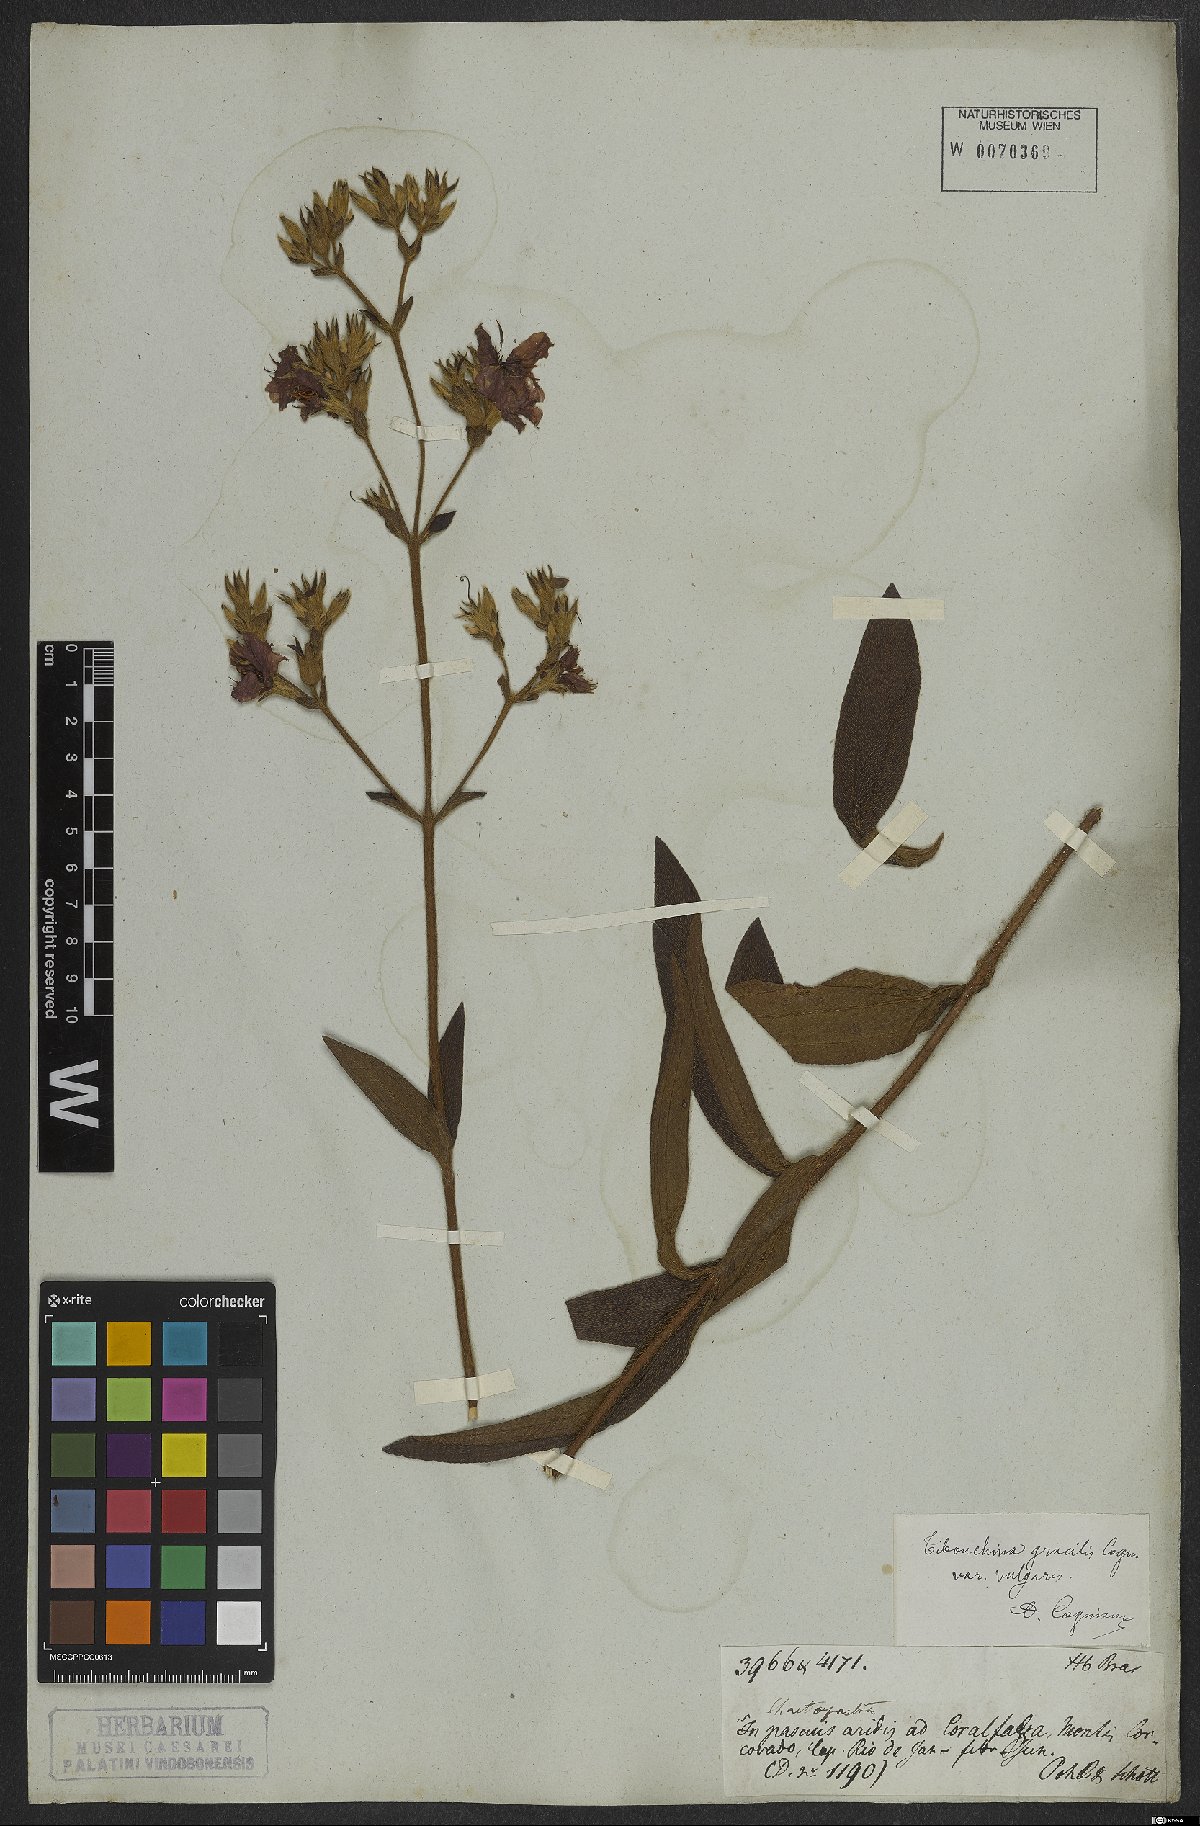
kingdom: Plantae
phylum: Tracheophyta
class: Magnoliopsida
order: Myrtales
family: Melastomataceae
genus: Chaetogastra
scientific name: Chaetogastra gracilis
